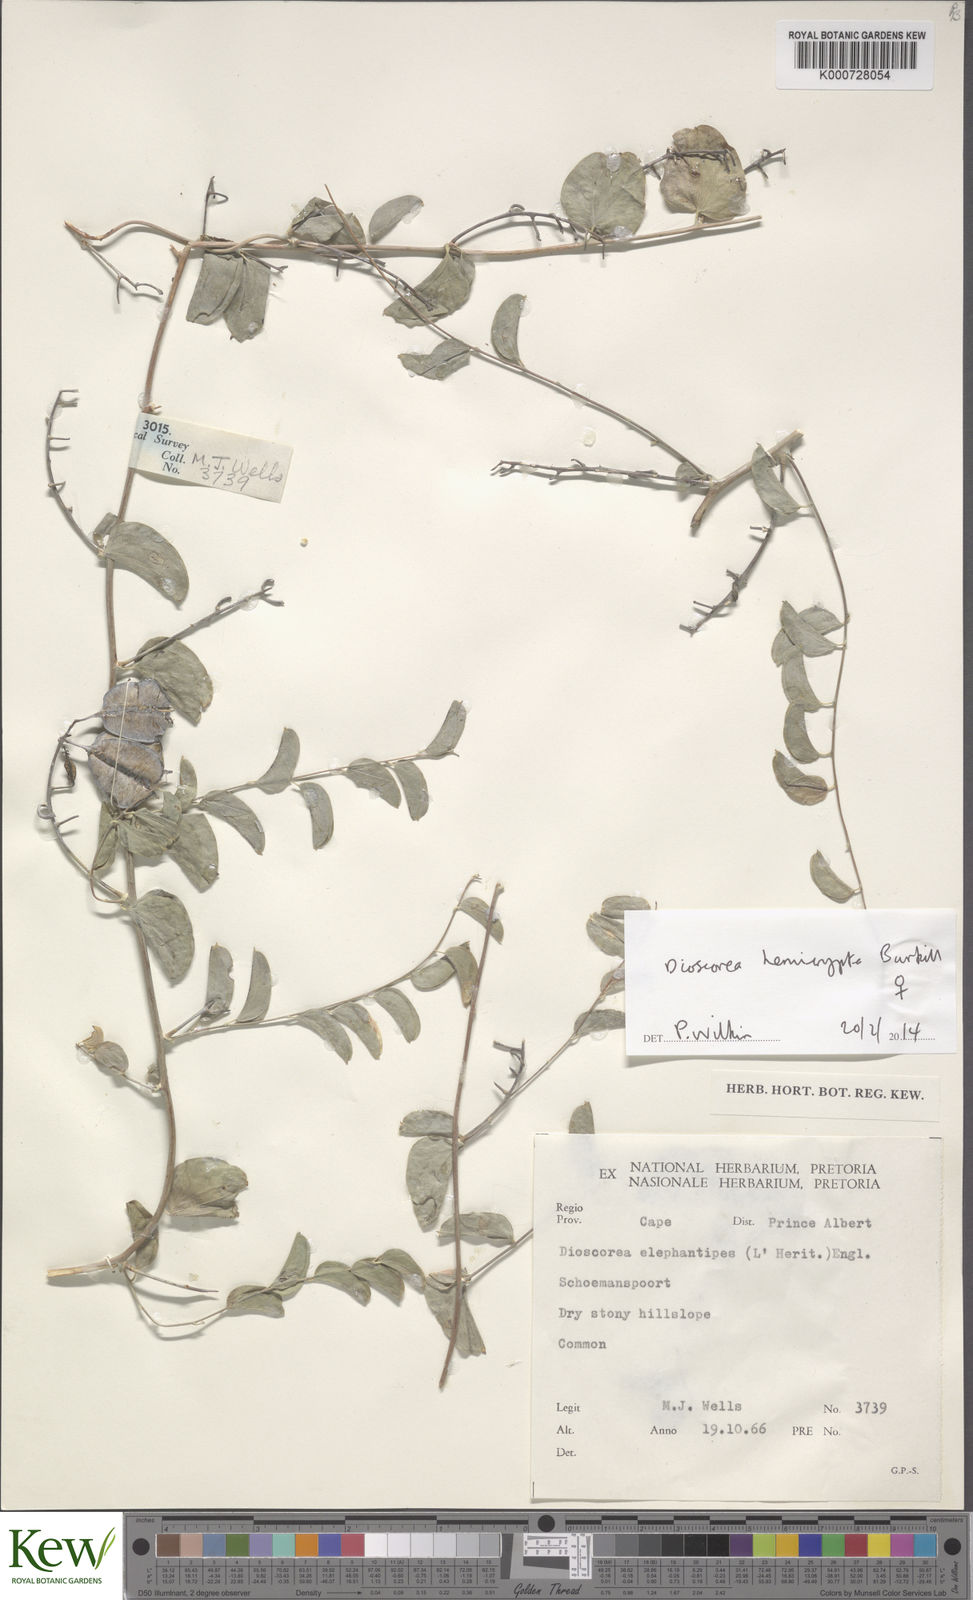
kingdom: Plantae
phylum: Tracheophyta
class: Liliopsida
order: Dioscoreales
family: Dioscoreaceae
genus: Dioscorea
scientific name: Dioscorea hemicrypta
